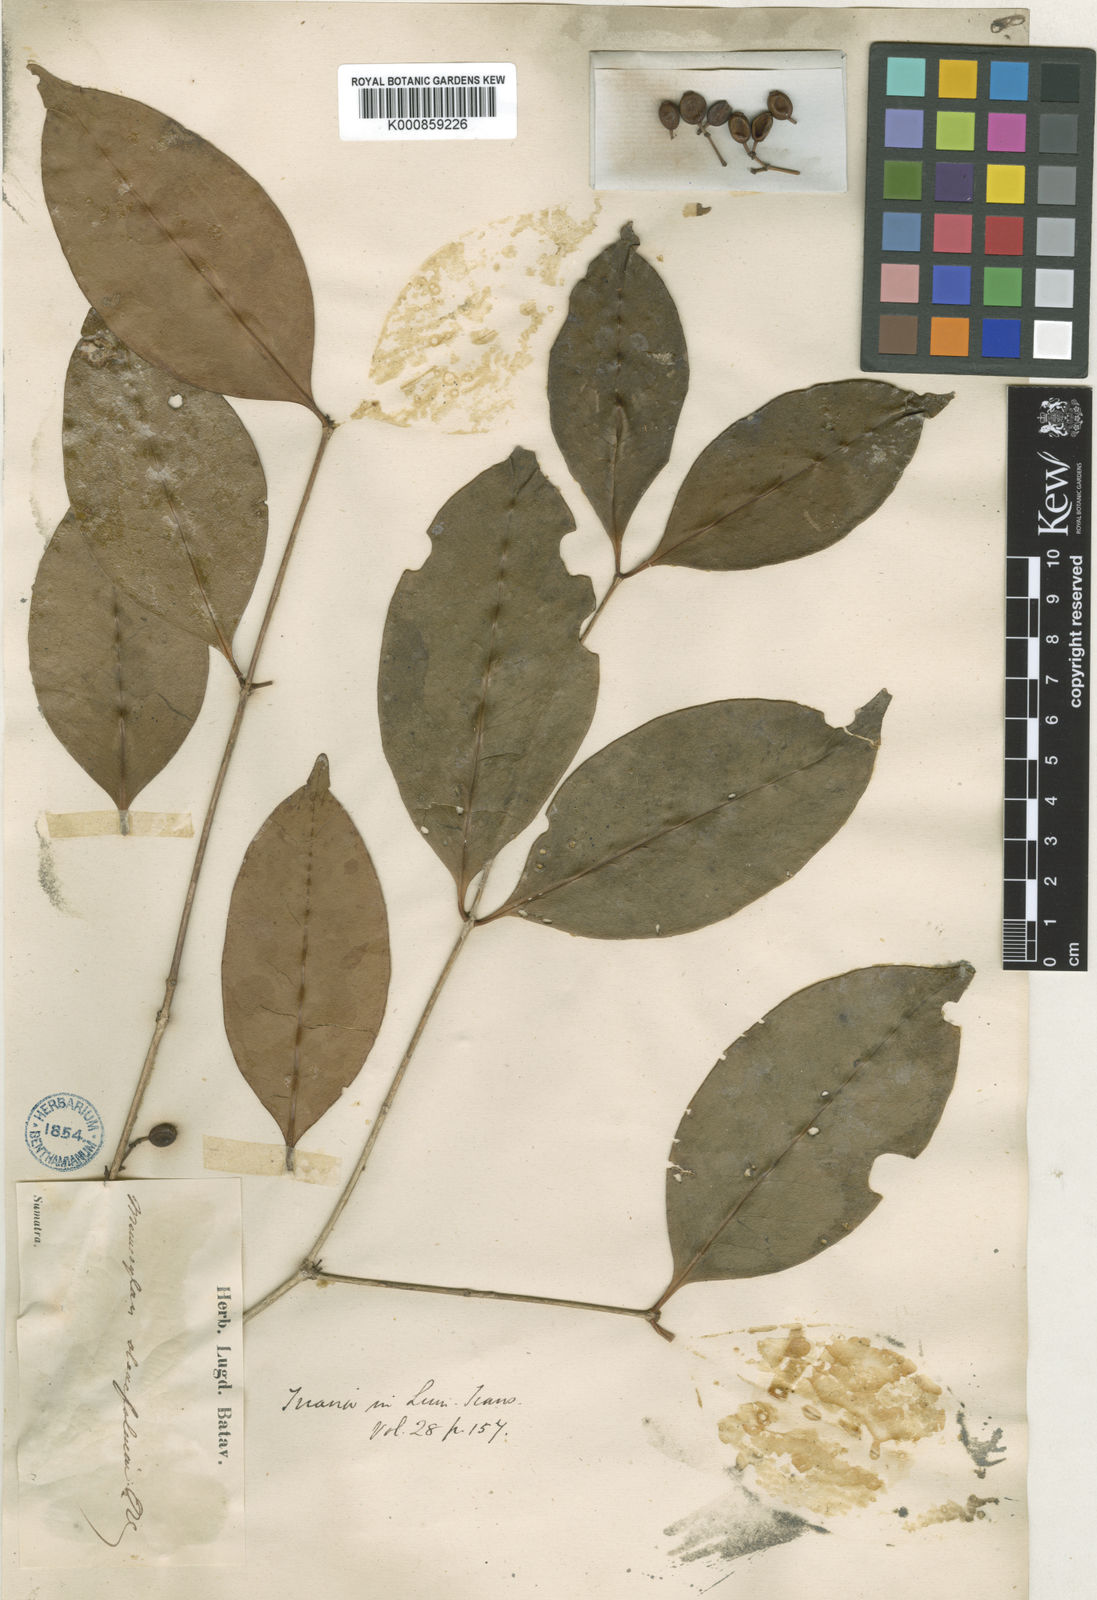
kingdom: Plantae
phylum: Tracheophyta
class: Magnoliopsida
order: Myrtales
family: Melastomataceae
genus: Memecylon
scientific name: Memecylon ochroleucum
